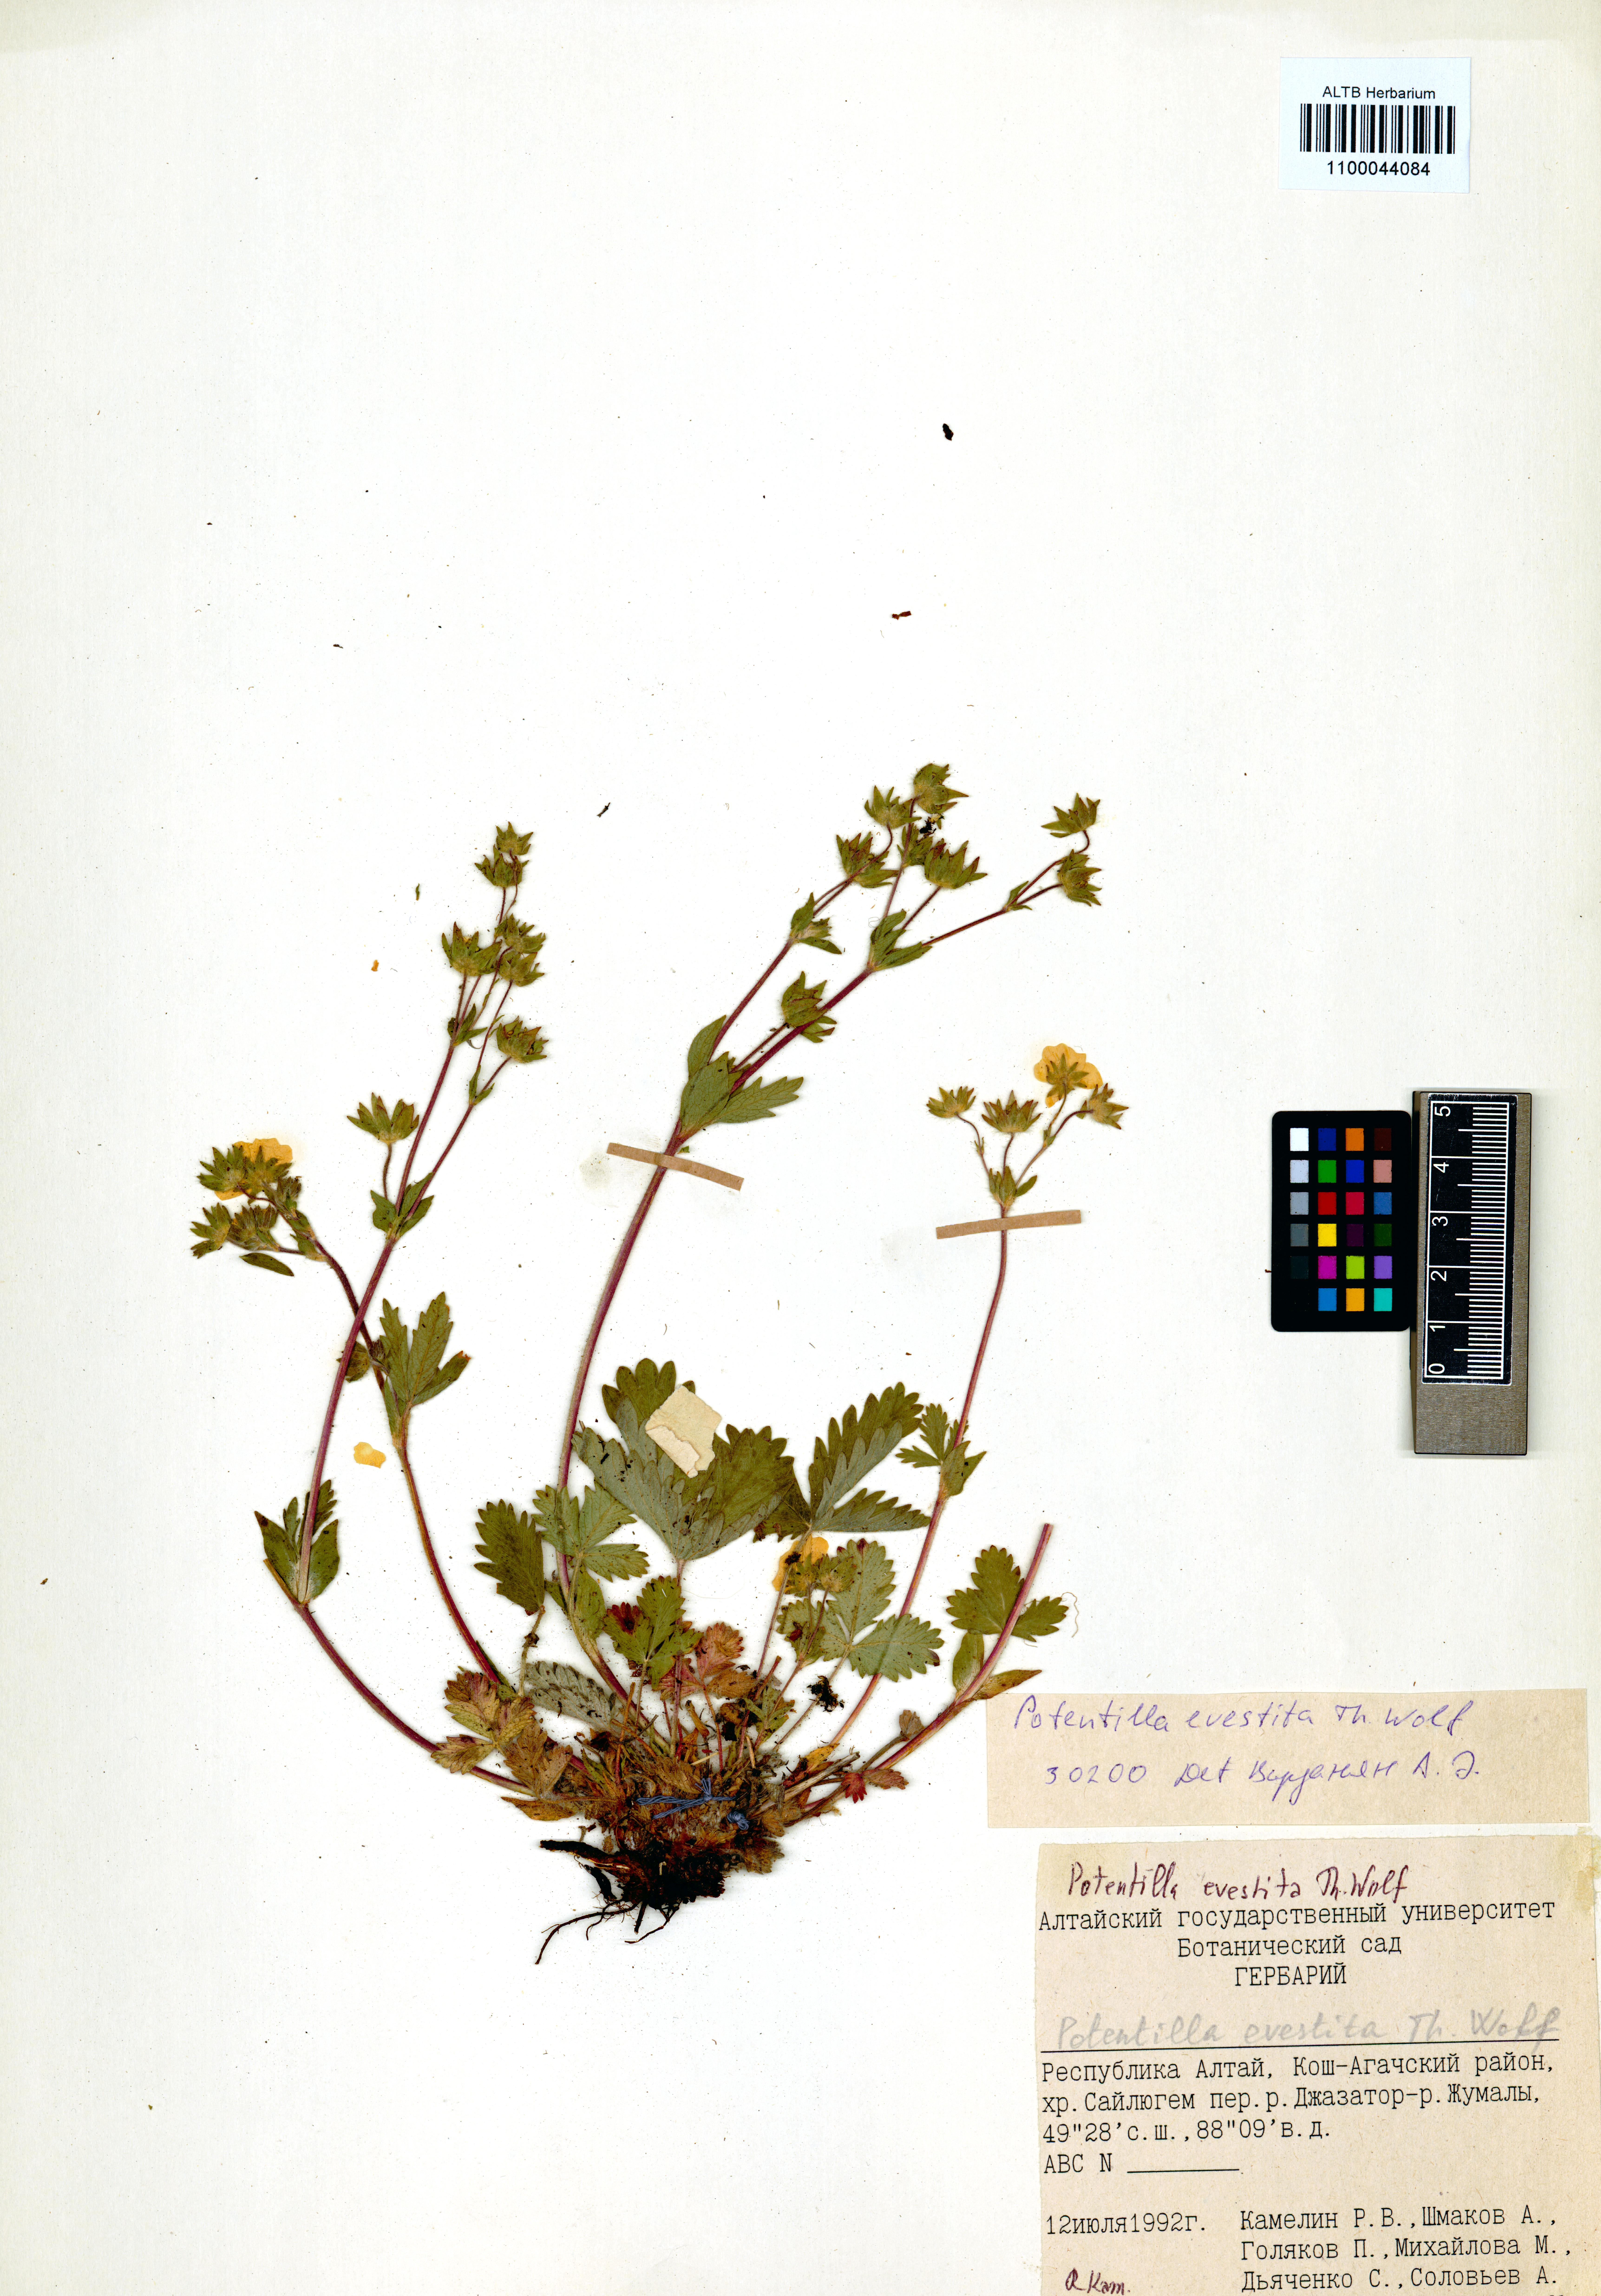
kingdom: Plantae
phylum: Tracheophyta
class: Magnoliopsida
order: Rosales
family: Rosaceae
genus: Potentilla
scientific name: Potentilla evestita
